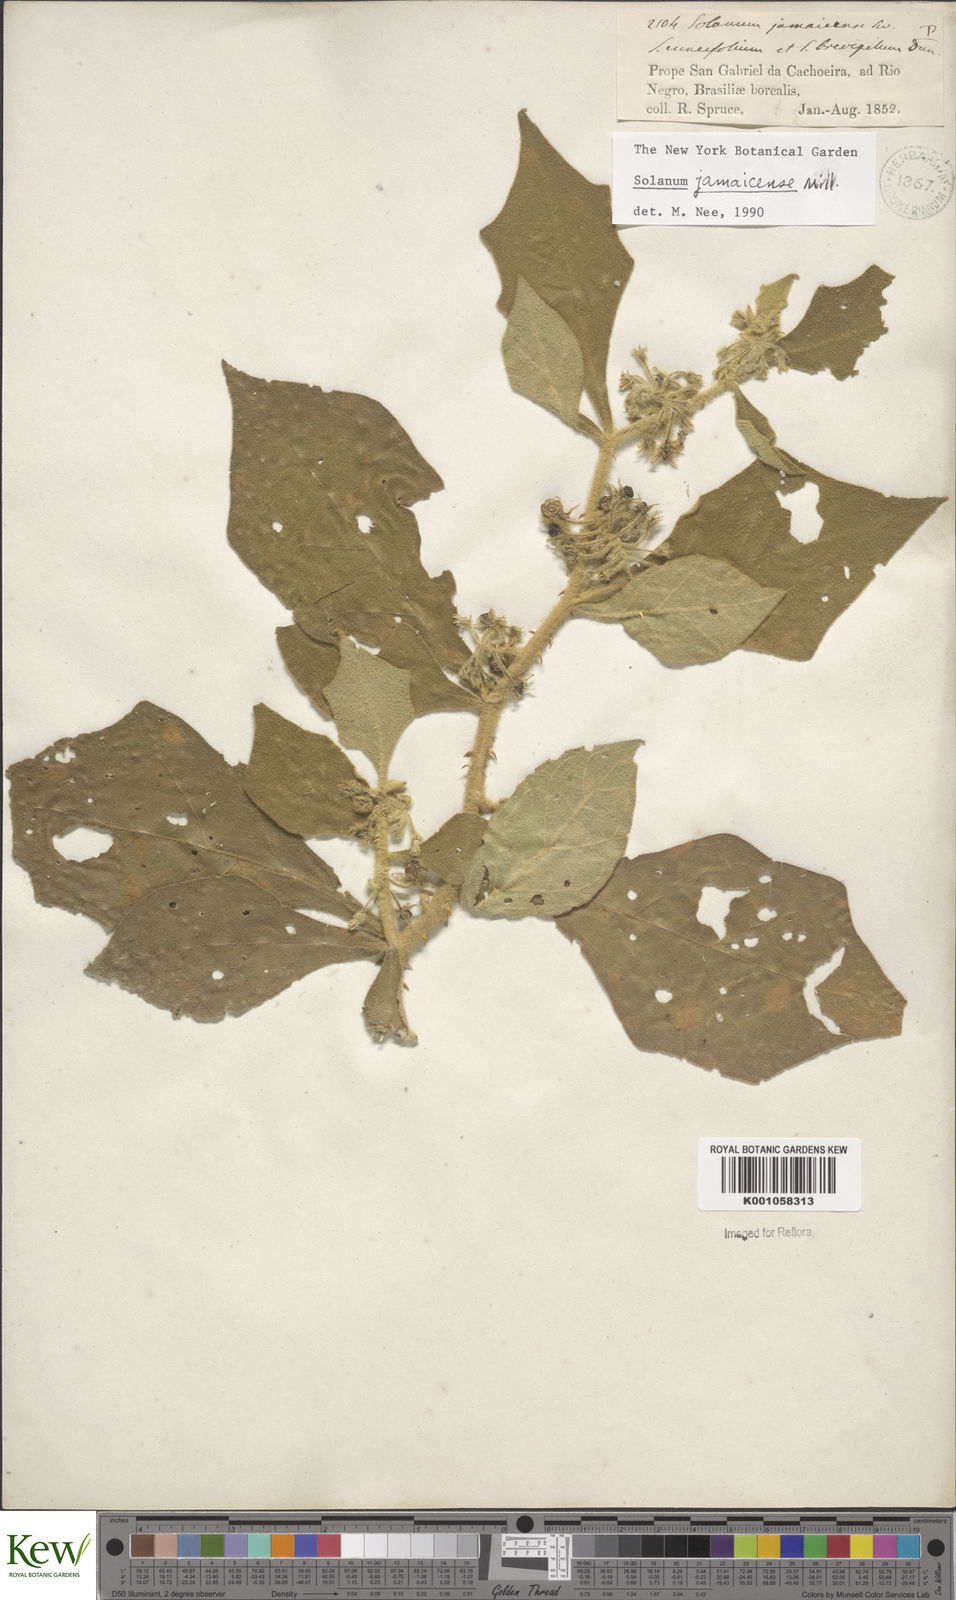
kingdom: Plantae
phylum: Tracheophyta
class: Magnoliopsida
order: Solanales
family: Solanaceae
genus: Solanum
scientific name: Solanum jamaicense
